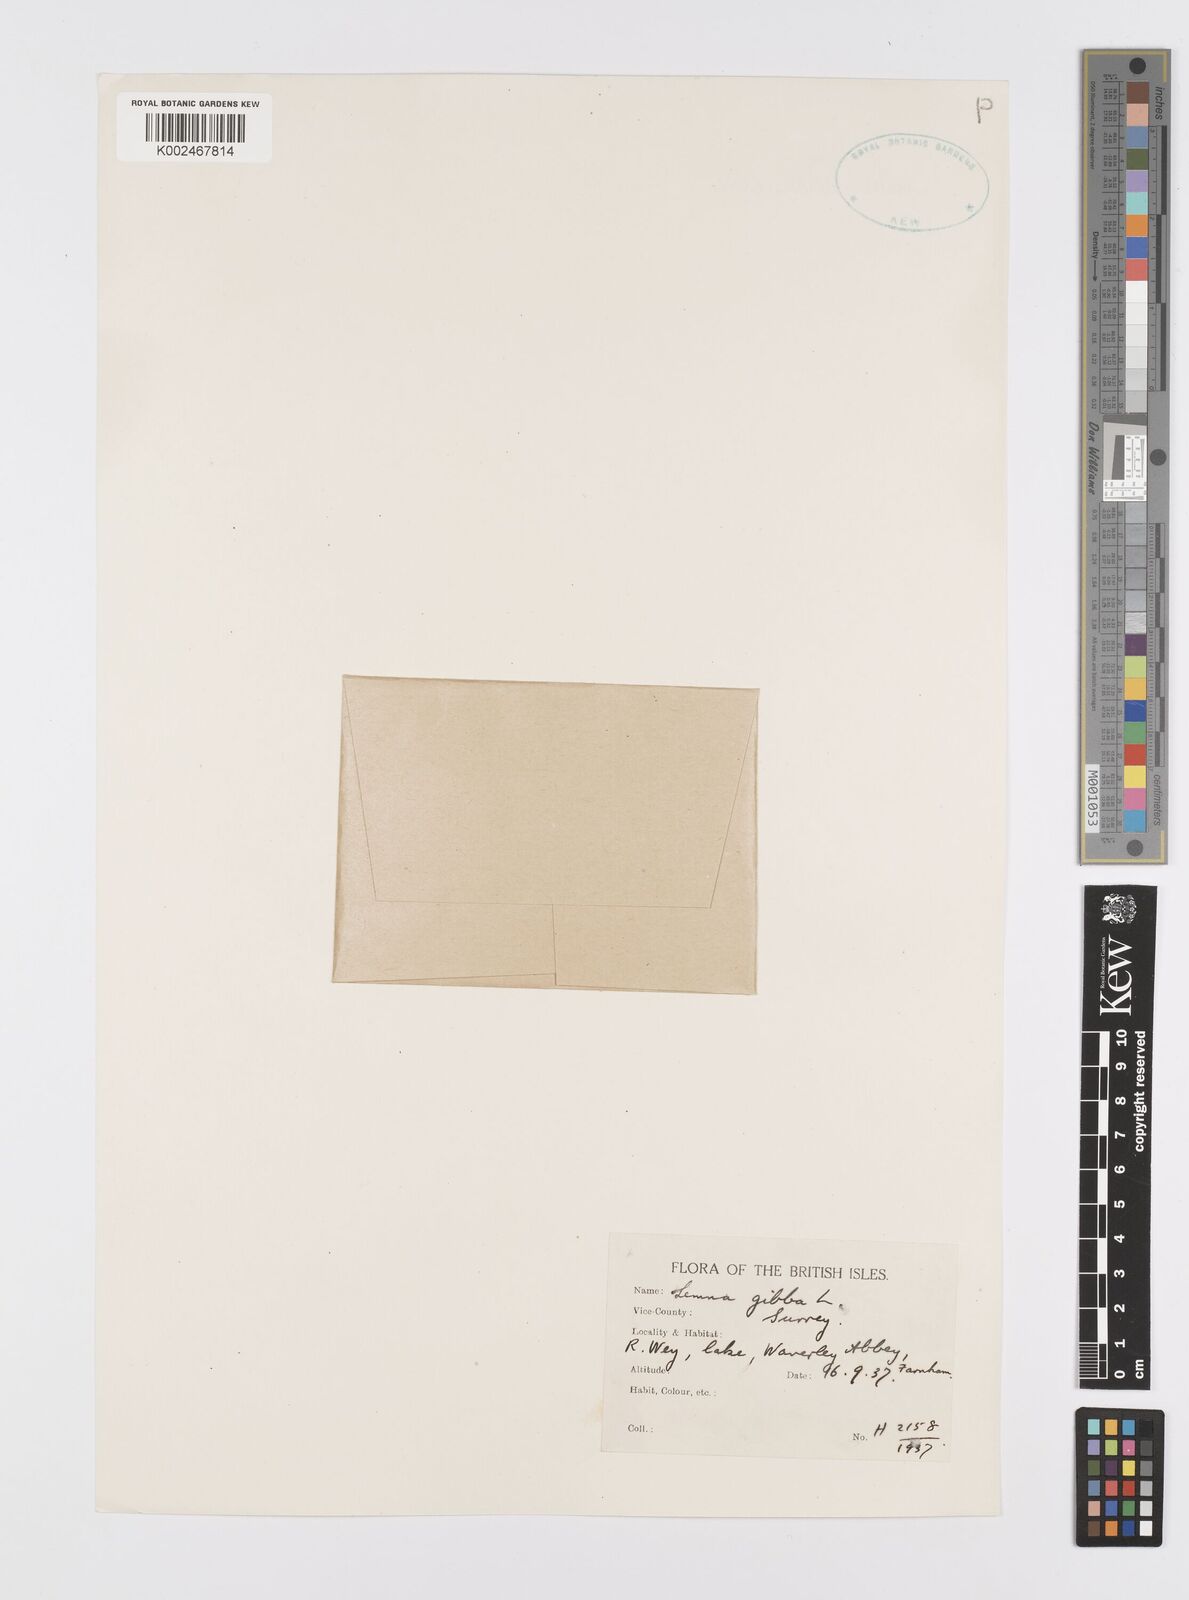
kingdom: Plantae
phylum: Tracheophyta
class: Liliopsida
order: Alismatales
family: Araceae
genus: Lemna
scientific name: Lemna gibba
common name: Fat duckweed
